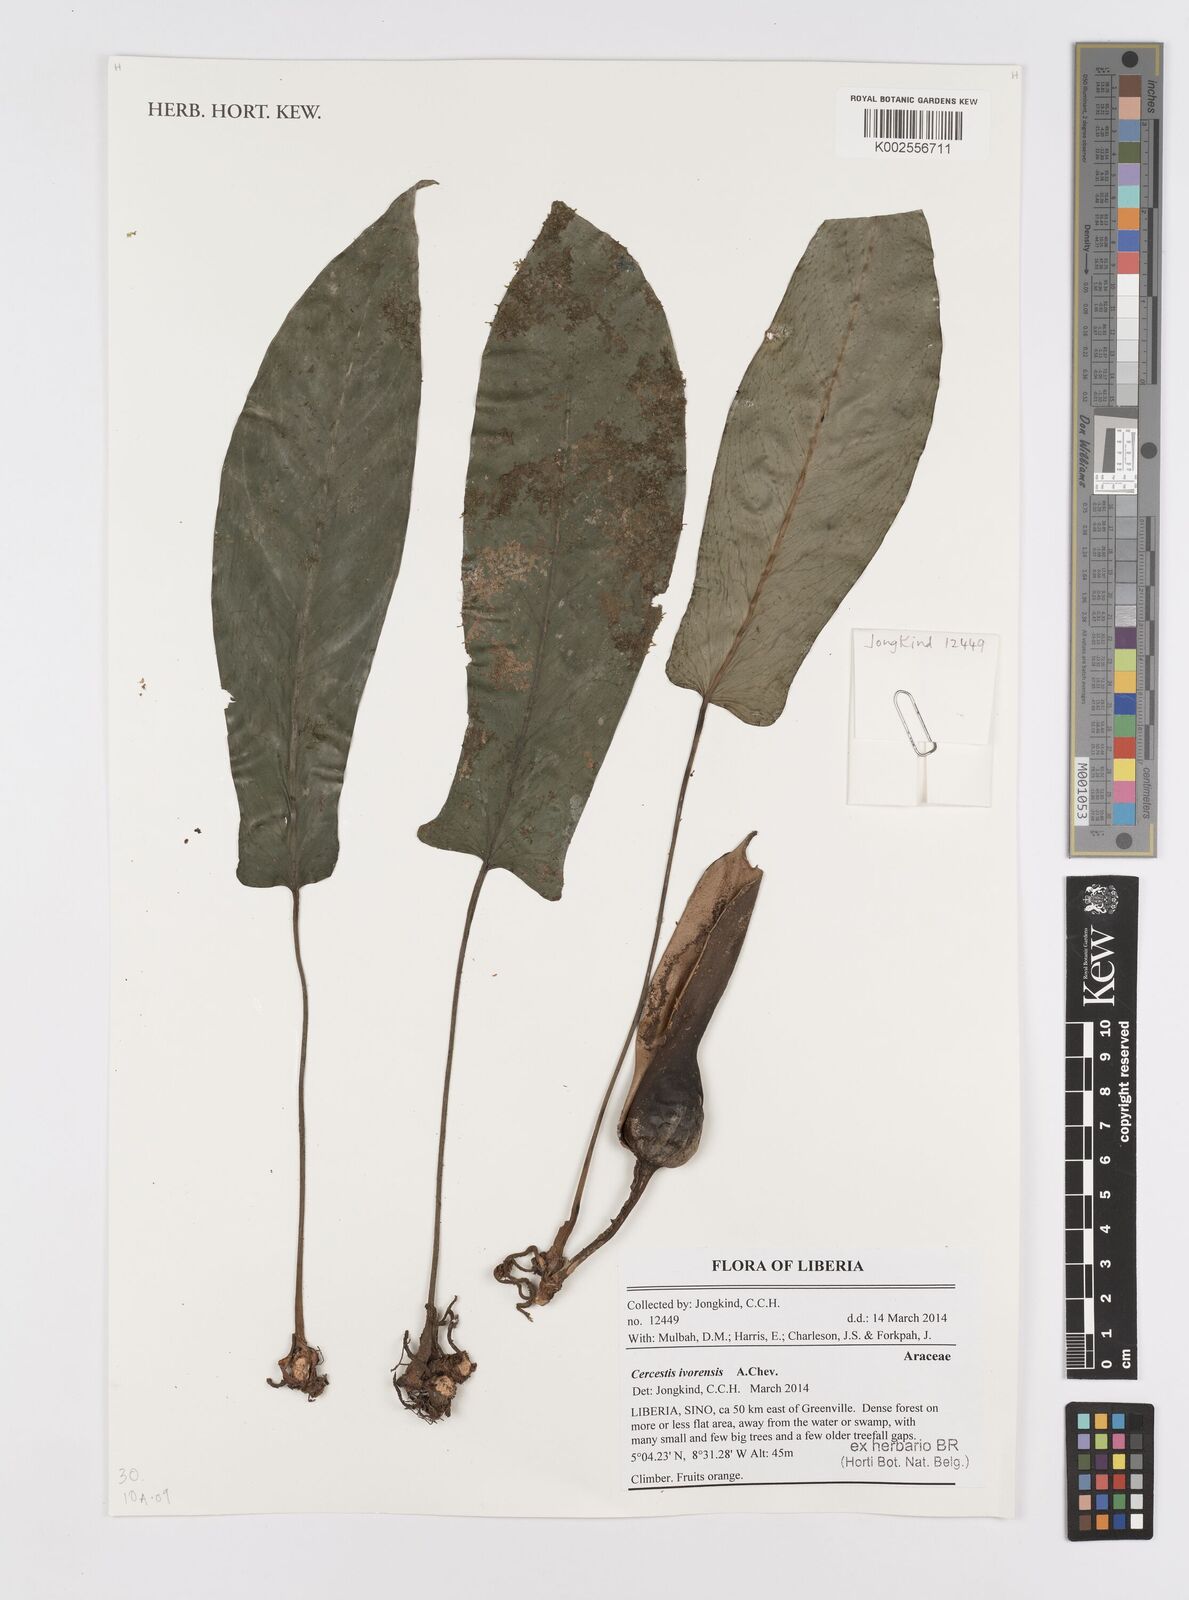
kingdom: Plantae
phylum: Tracheophyta
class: Liliopsida
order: Alismatales
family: Araceae
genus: Cercestis
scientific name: Cercestis ivorensis
